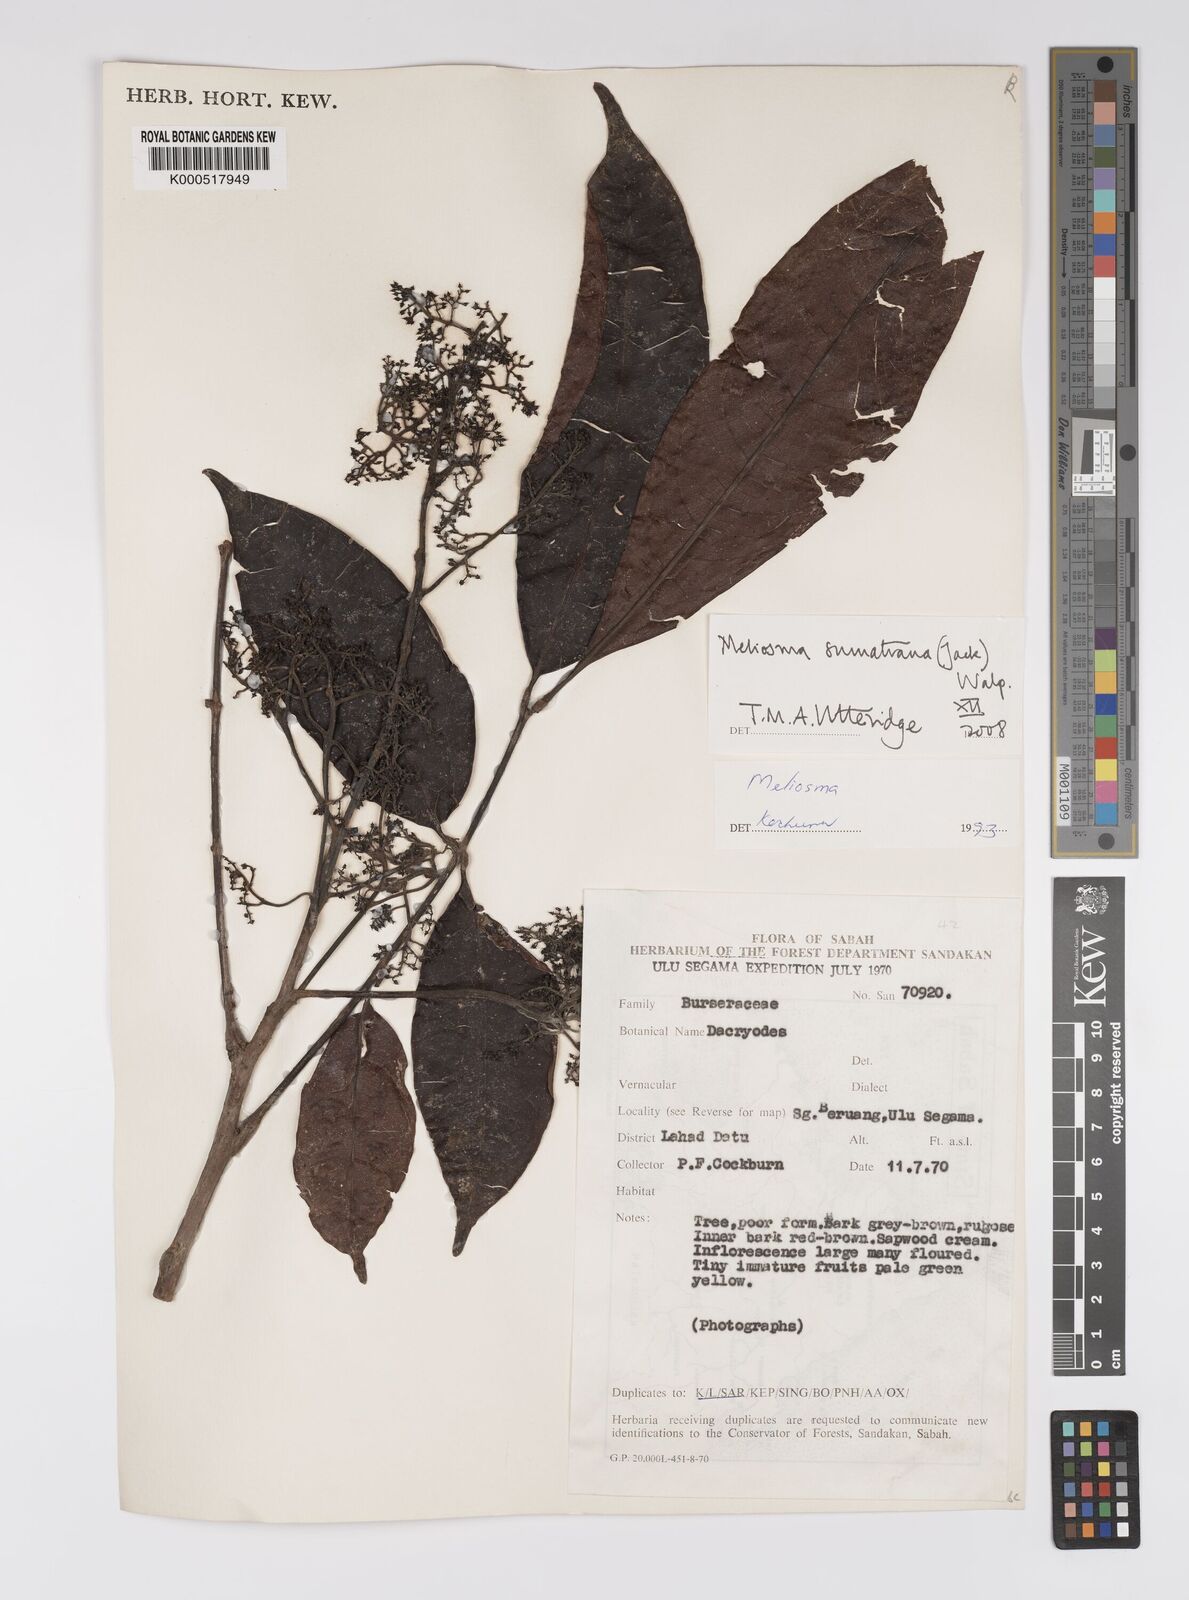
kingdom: Plantae
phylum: Tracheophyta
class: Magnoliopsida
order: Proteales
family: Sabiaceae
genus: Meliosma
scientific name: Meliosma sumatrana
